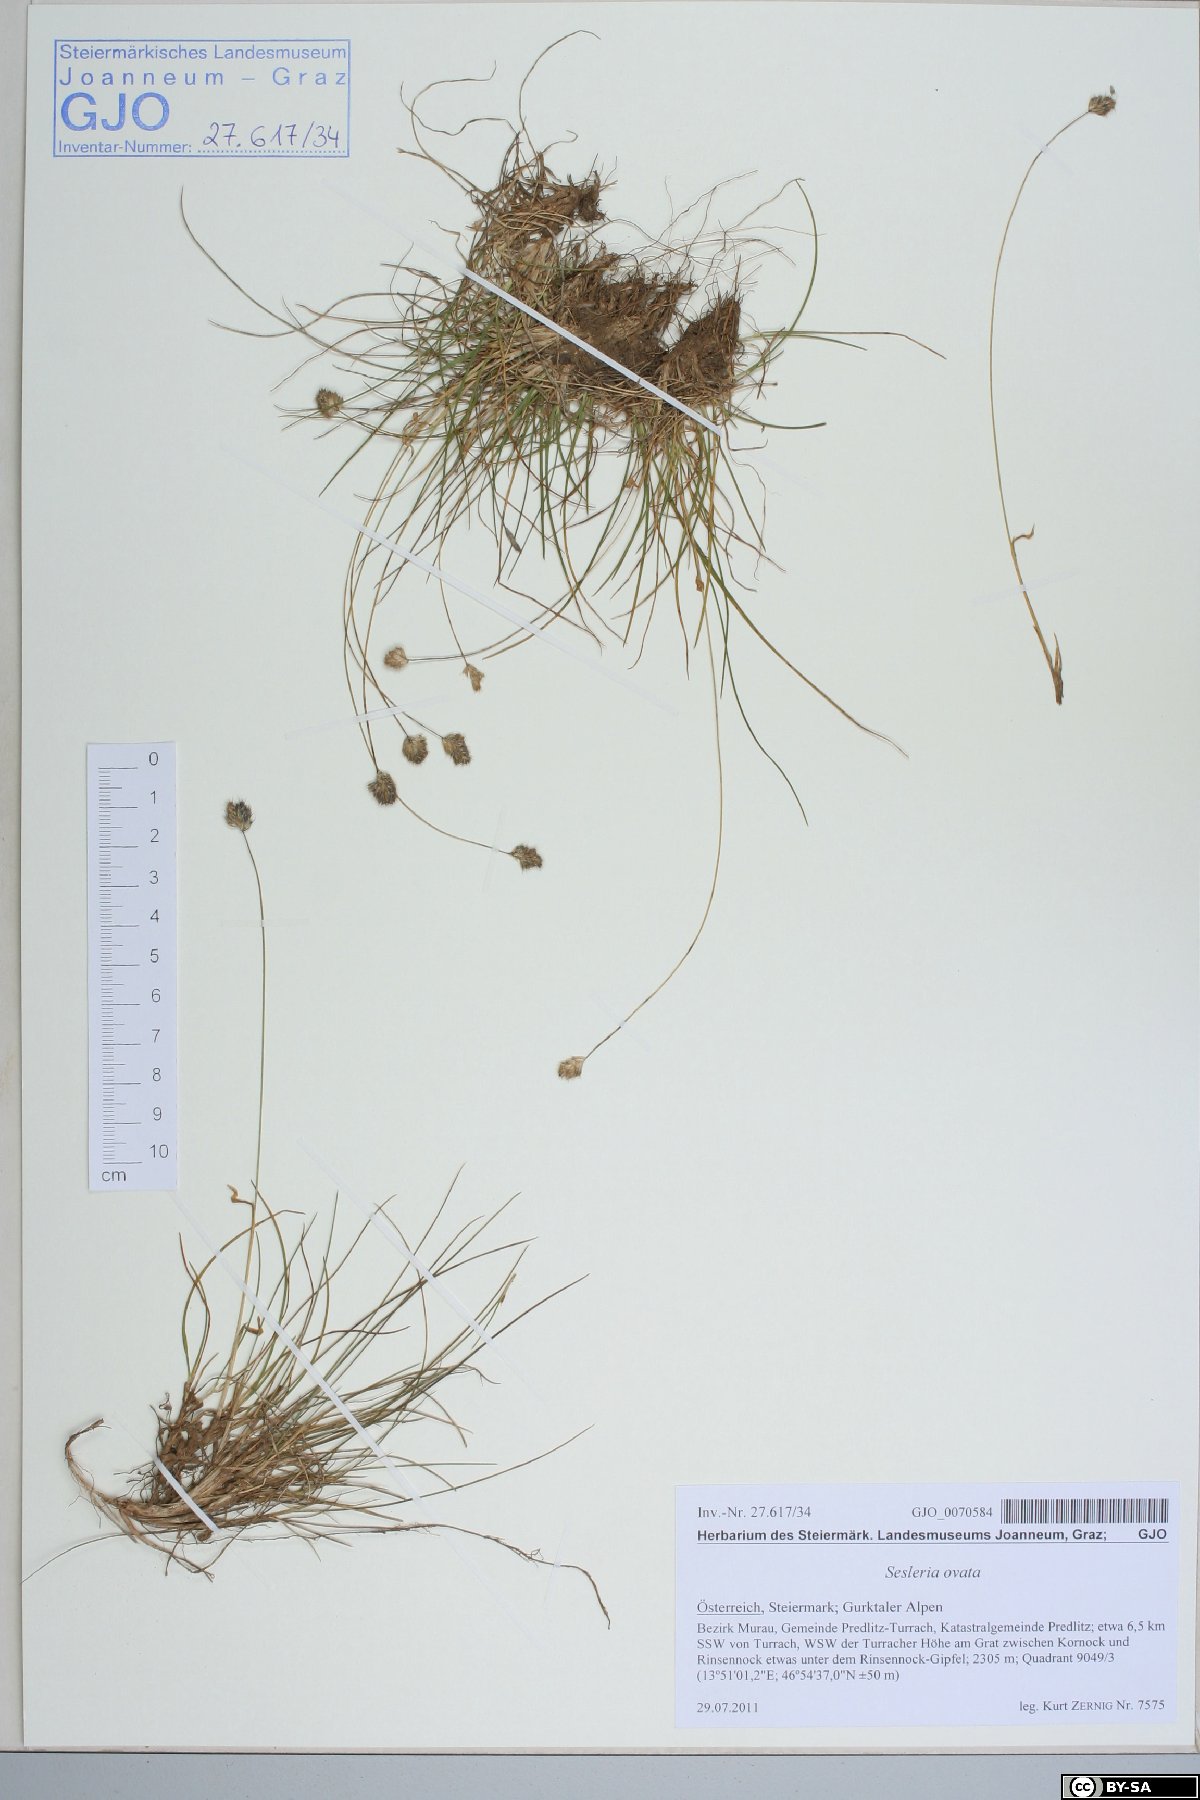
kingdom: Plantae
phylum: Tracheophyta
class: Liliopsida
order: Poales
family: Poaceae
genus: Psilathera
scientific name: Psilathera ovata
